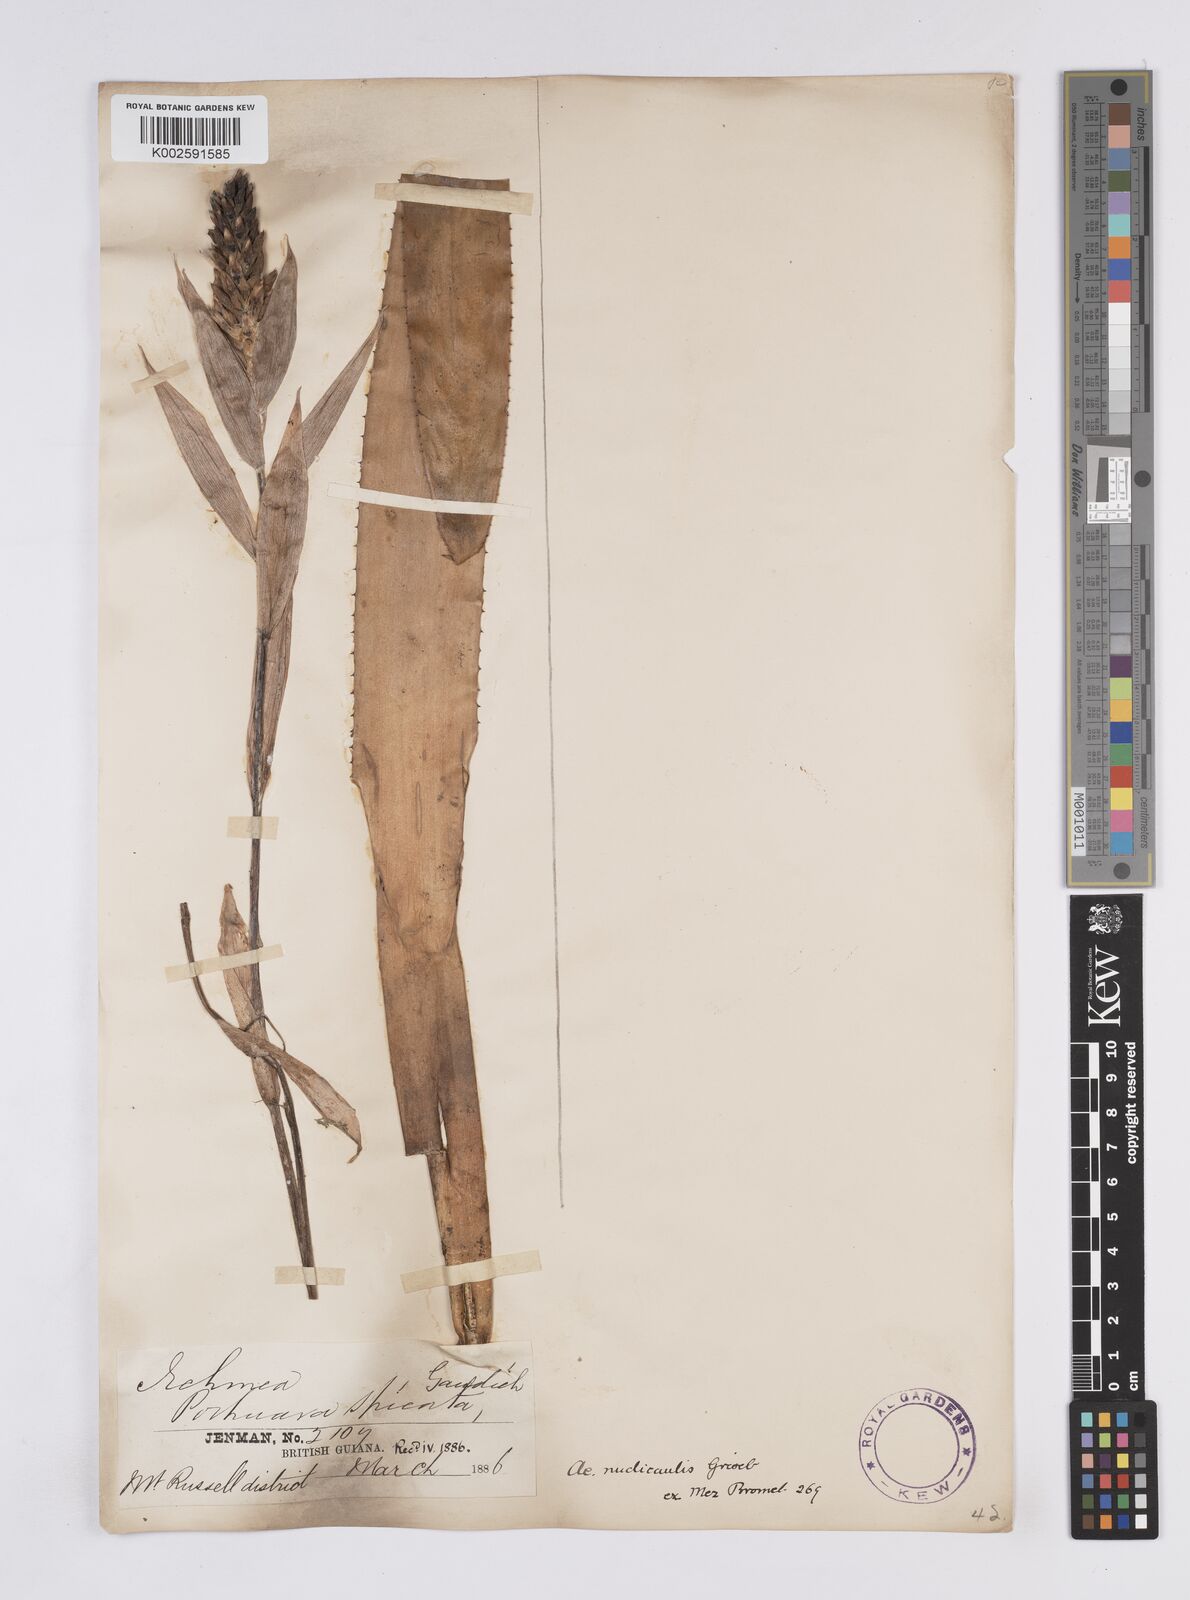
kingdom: Plantae
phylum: Tracheophyta
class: Liliopsida
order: Poales
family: Bromeliaceae
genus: Aechmea
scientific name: Aechmea nudicaulis
